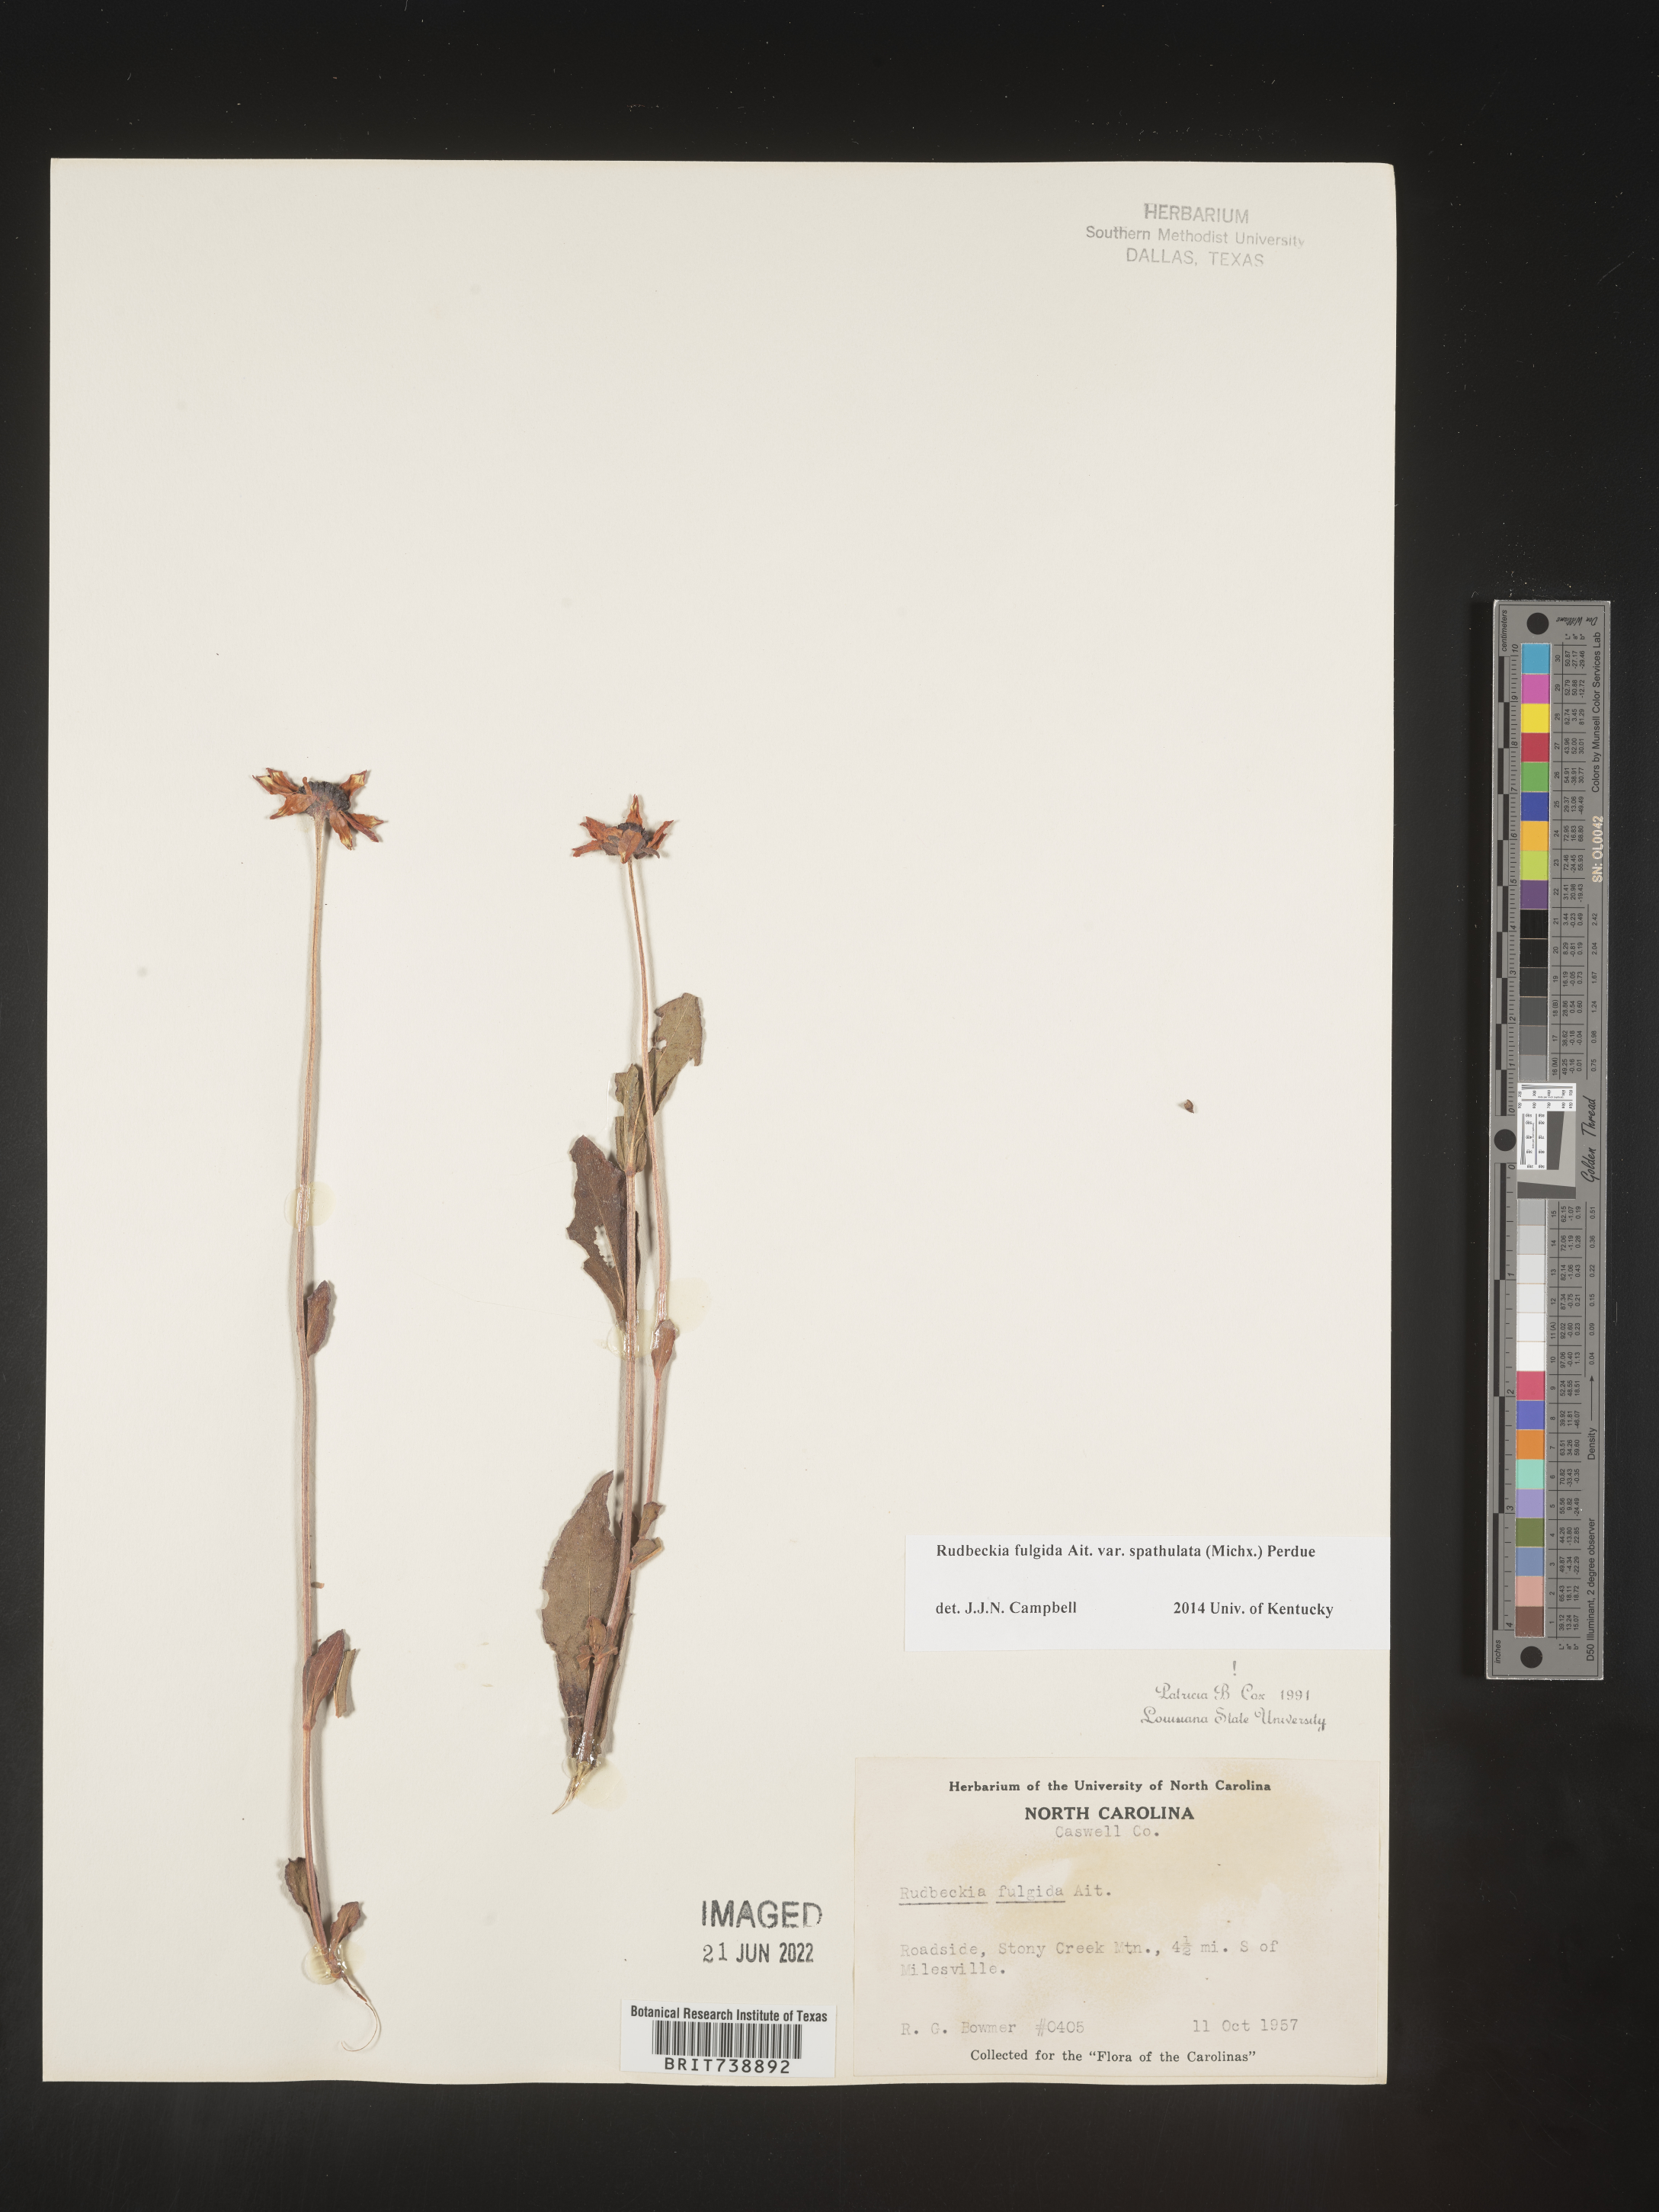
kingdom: Plantae
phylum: Tracheophyta
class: Magnoliopsida
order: Asterales
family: Asteraceae
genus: Rudbeckia
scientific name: Rudbeckia fulgida
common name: Perennial coneflower
